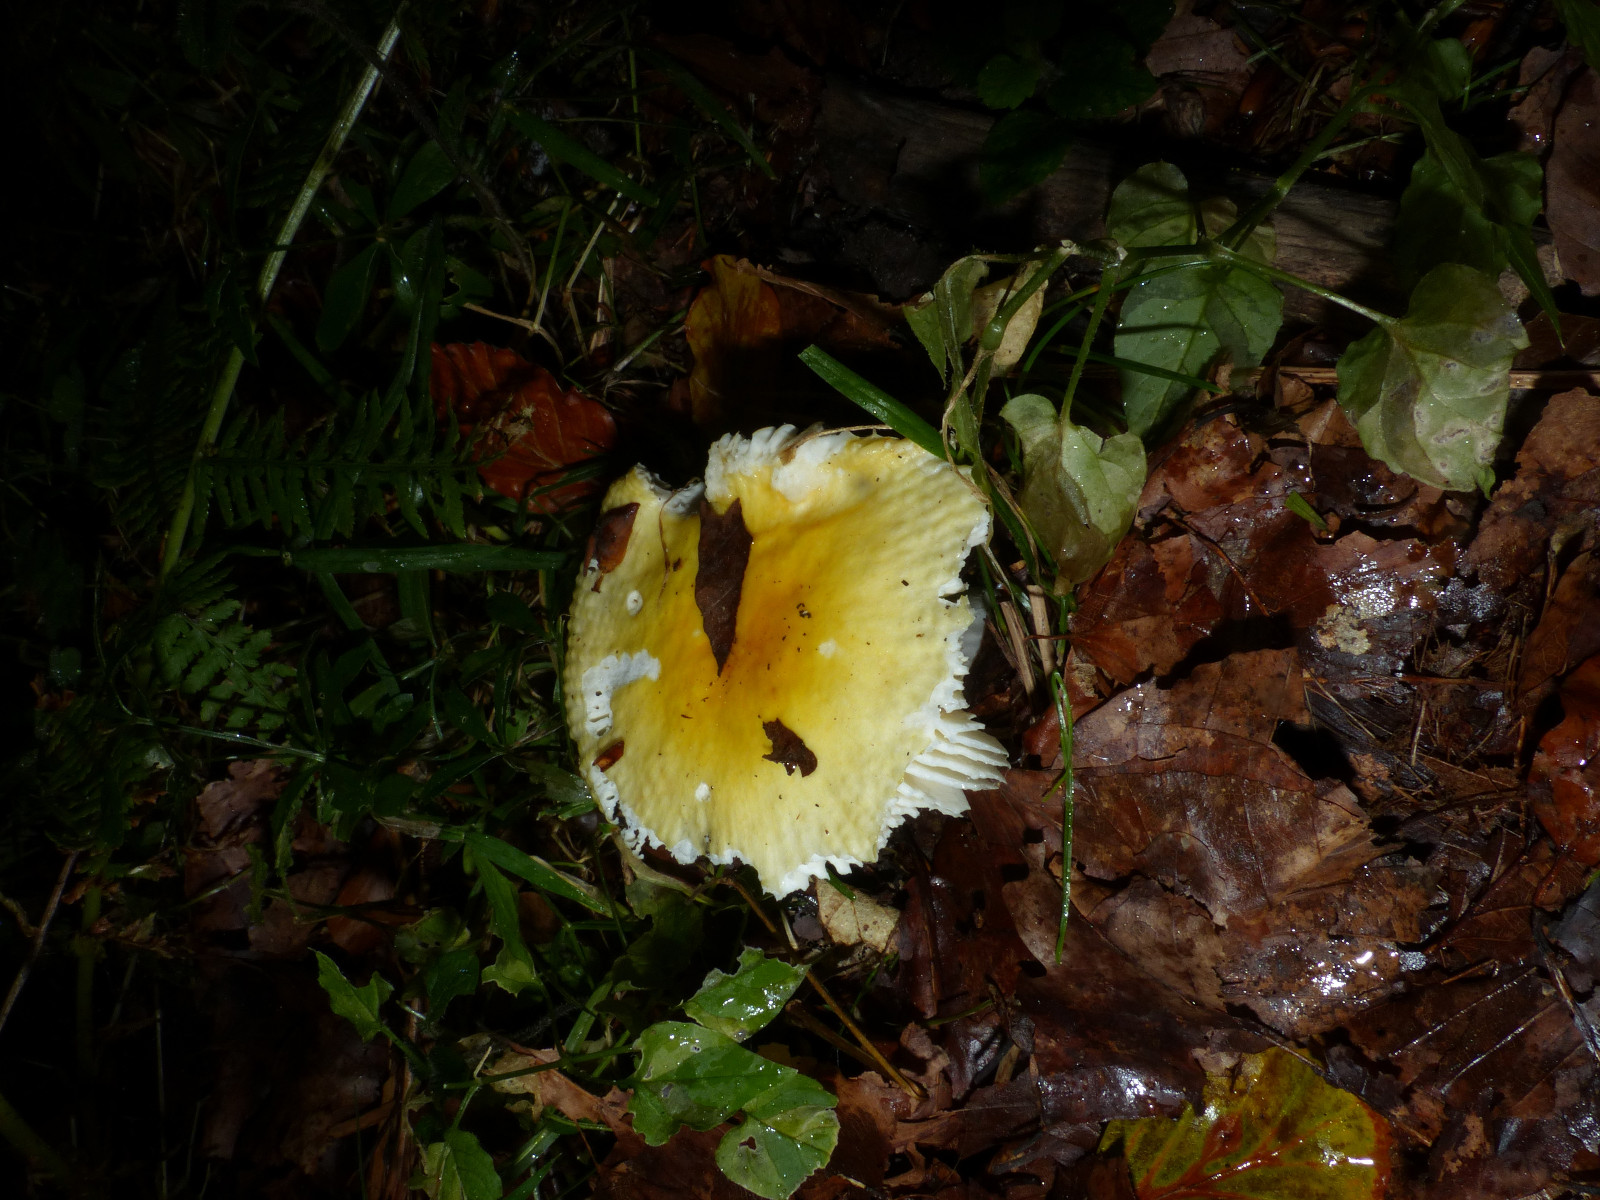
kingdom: Fungi
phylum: Basidiomycota
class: Agaricomycetes
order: Russulales
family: Russulaceae
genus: Russula
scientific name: Russula solaris
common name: sol-skørhat
